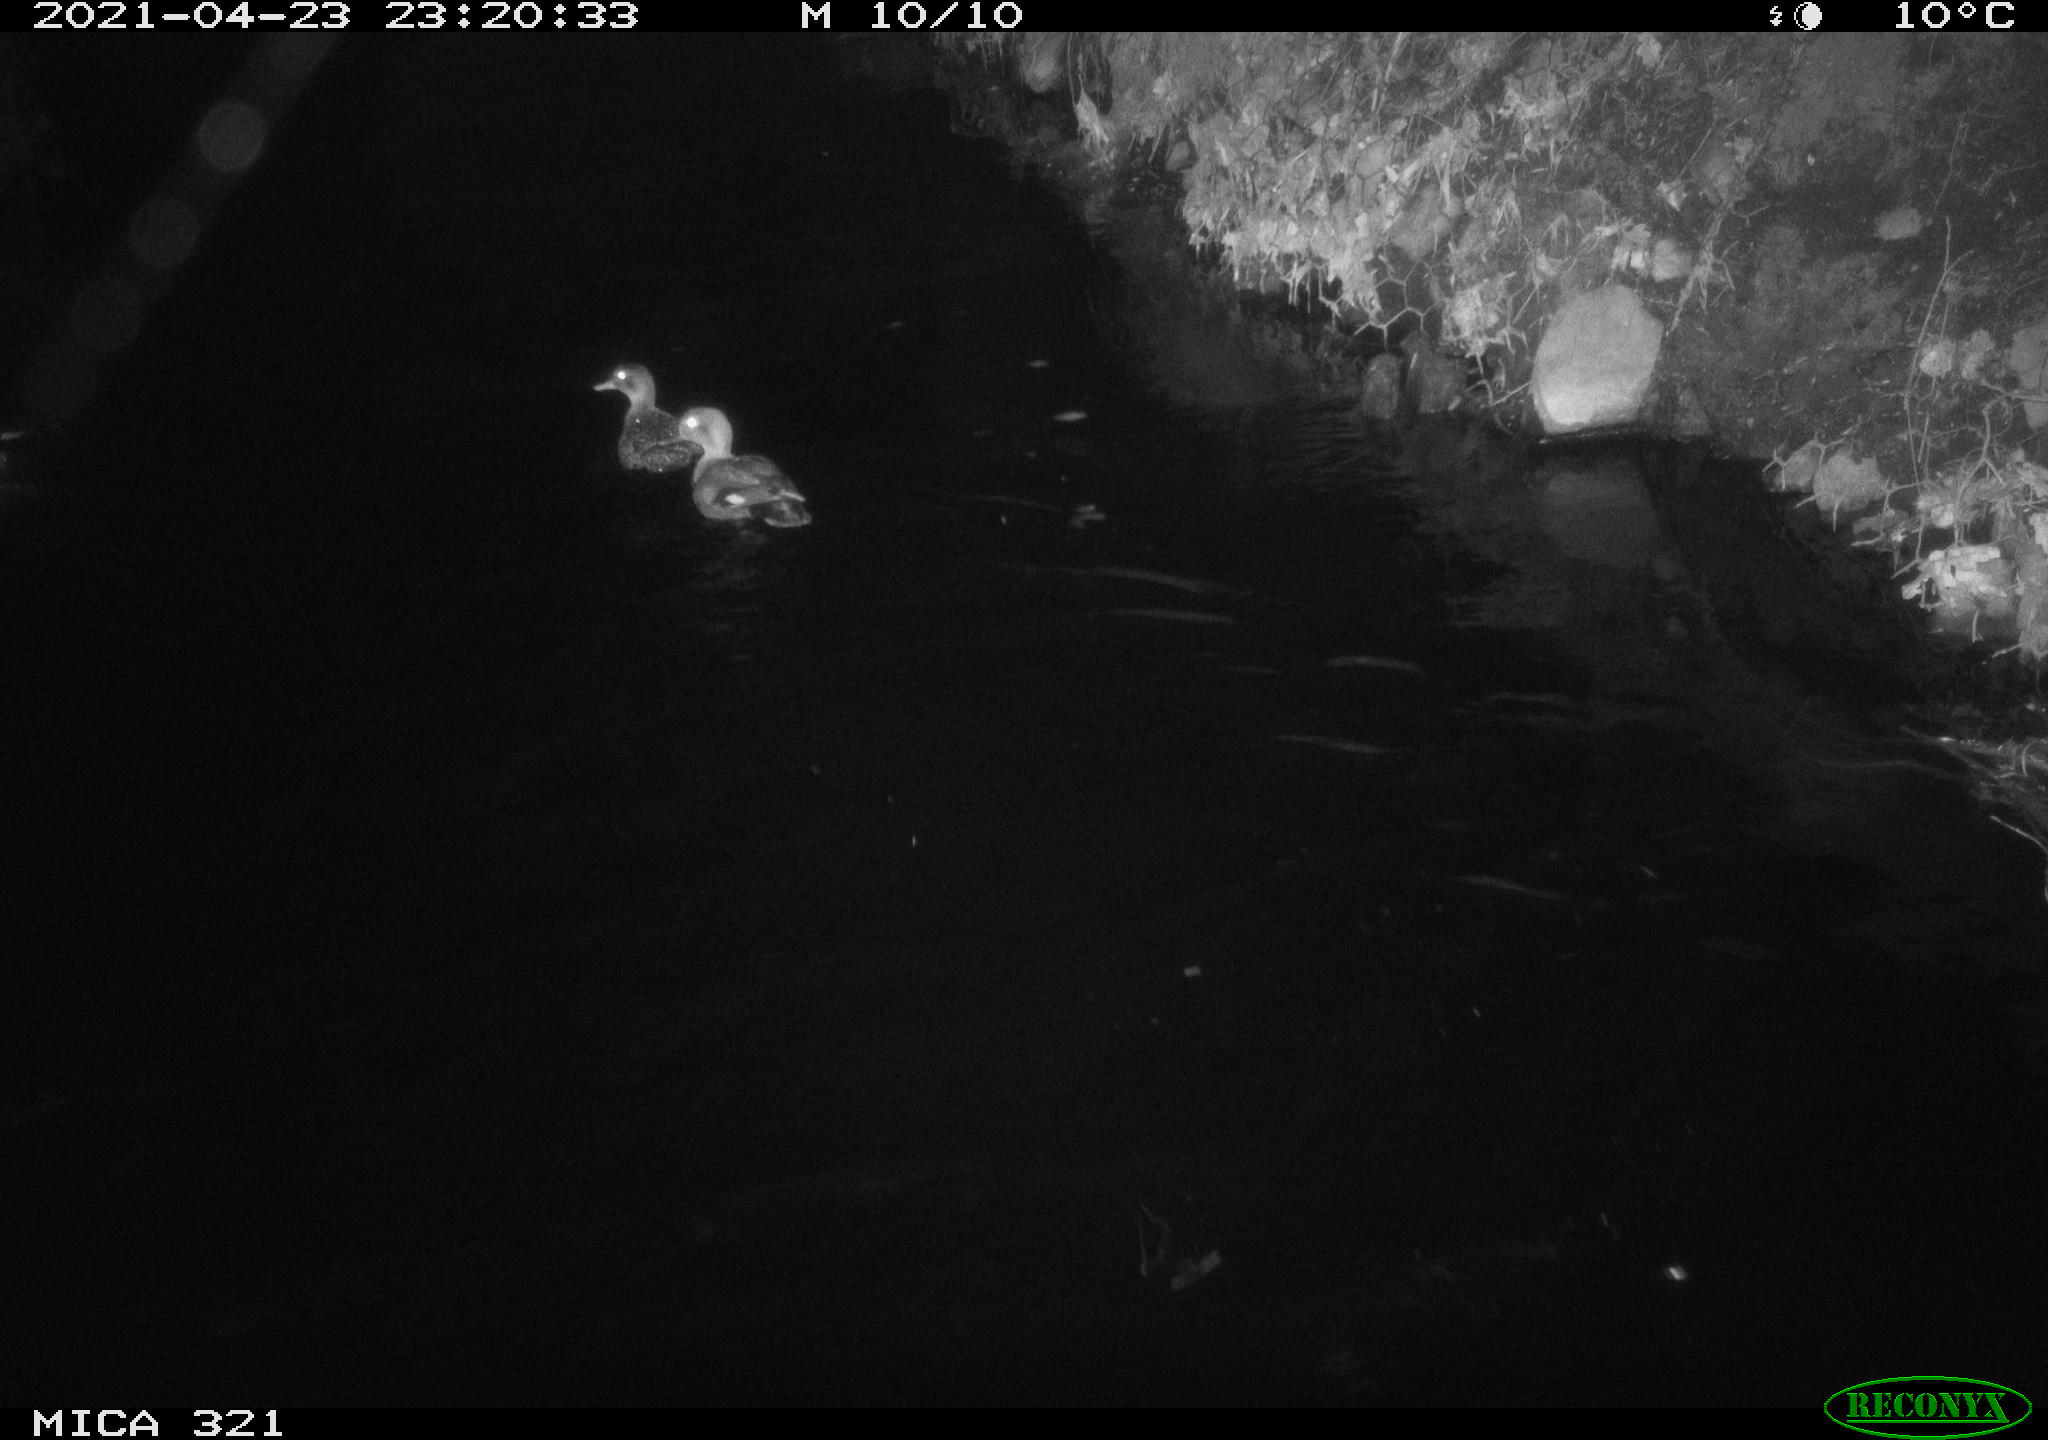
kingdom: Animalia
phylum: Chordata
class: Aves
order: Anseriformes
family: Anatidae
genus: Anas
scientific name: Anas
